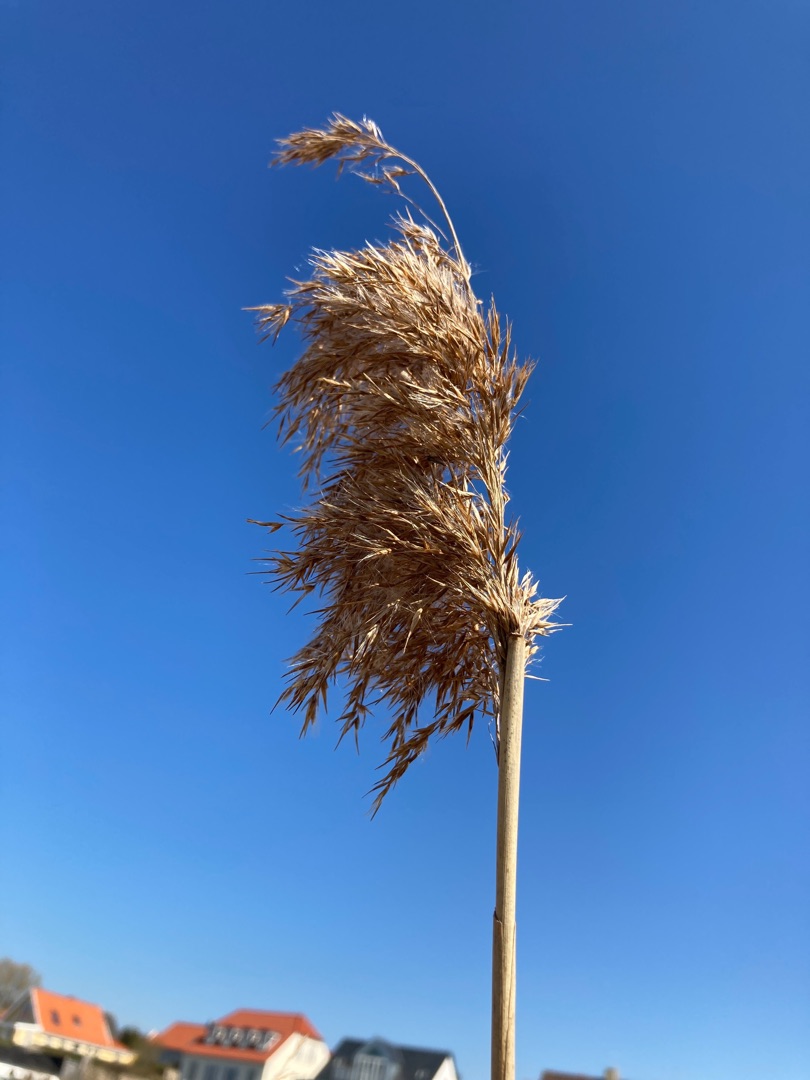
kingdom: Plantae
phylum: Tracheophyta
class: Liliopsida
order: Poales
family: Poaceae
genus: Phragmites
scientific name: Phragmites australis
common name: Tagrør
